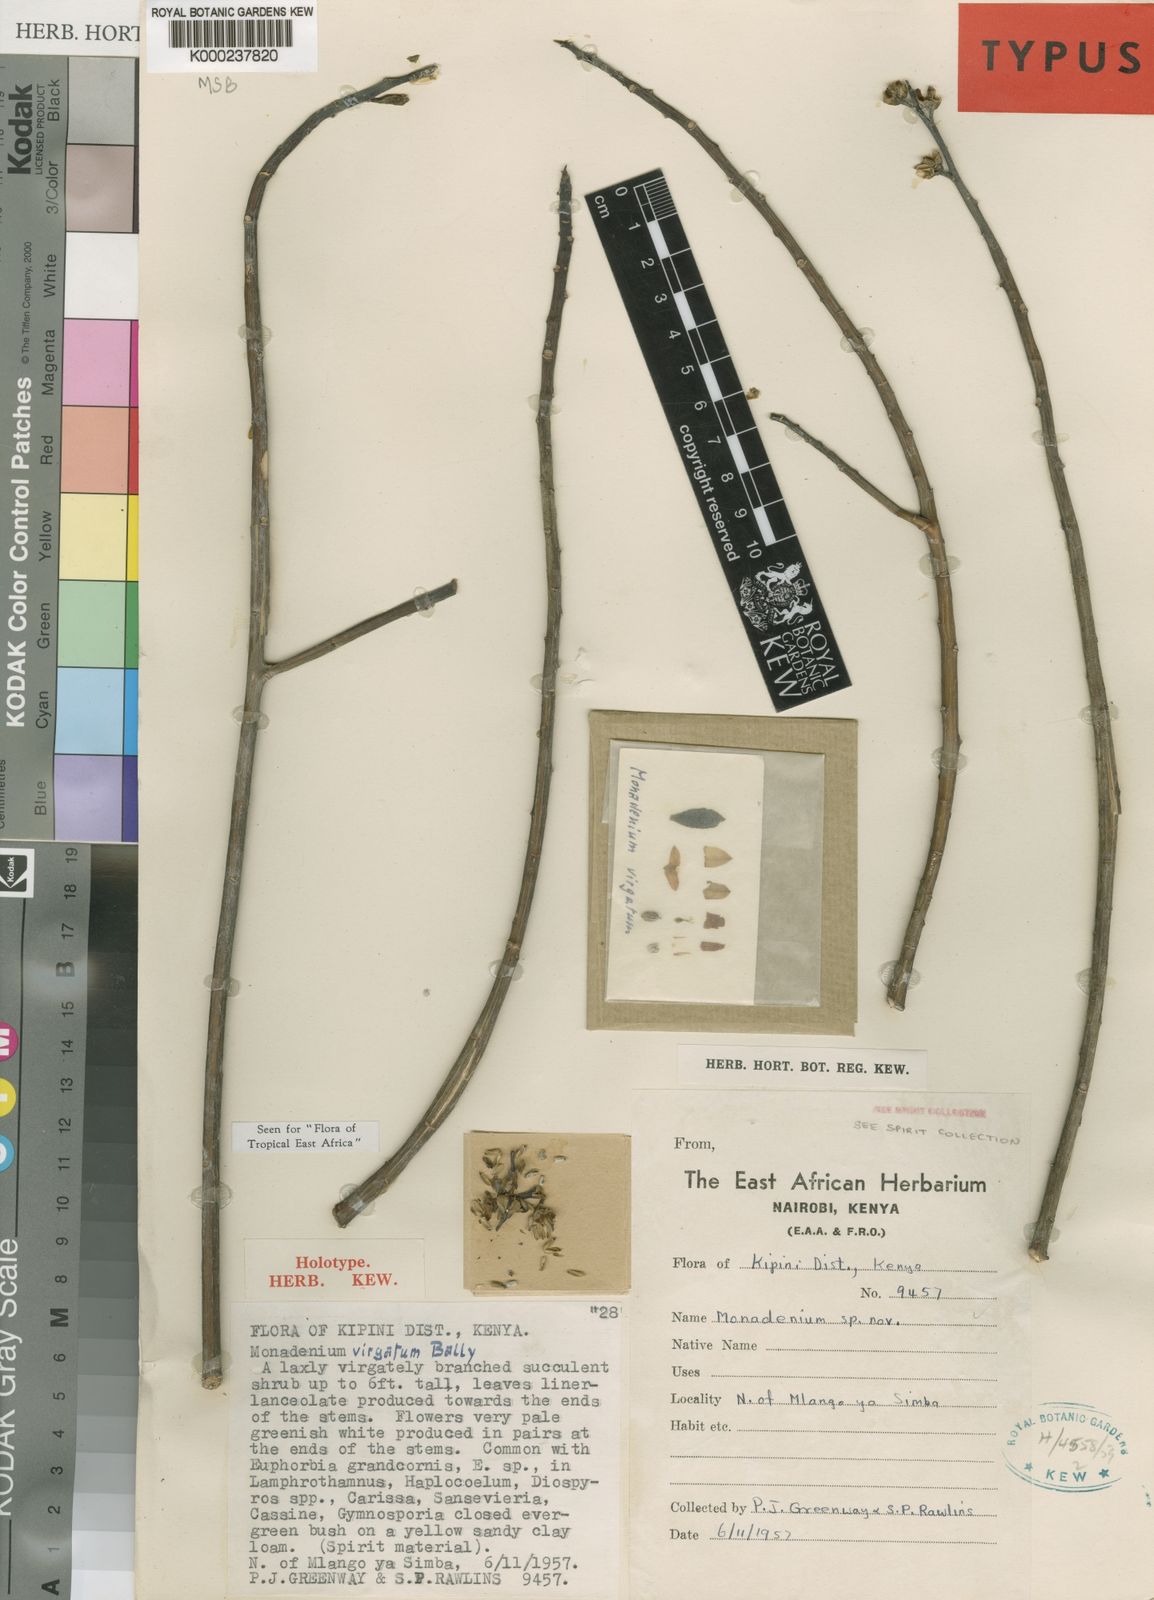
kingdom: Plantae
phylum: Tracheophyta
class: Magnoliopsida
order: Malpighiales
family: Euphorbiaceae
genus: Euphorbia
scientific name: Euphorbia neovirgata
